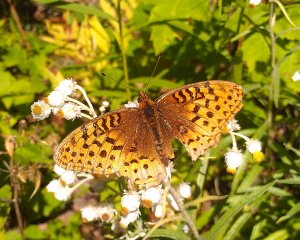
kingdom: Animalia
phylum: Arthropoda
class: Insecta
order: Lepidoptera
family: Nymphalidae
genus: Speyeria
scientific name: Speyeria cybele
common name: Great Spangled Fritillary
